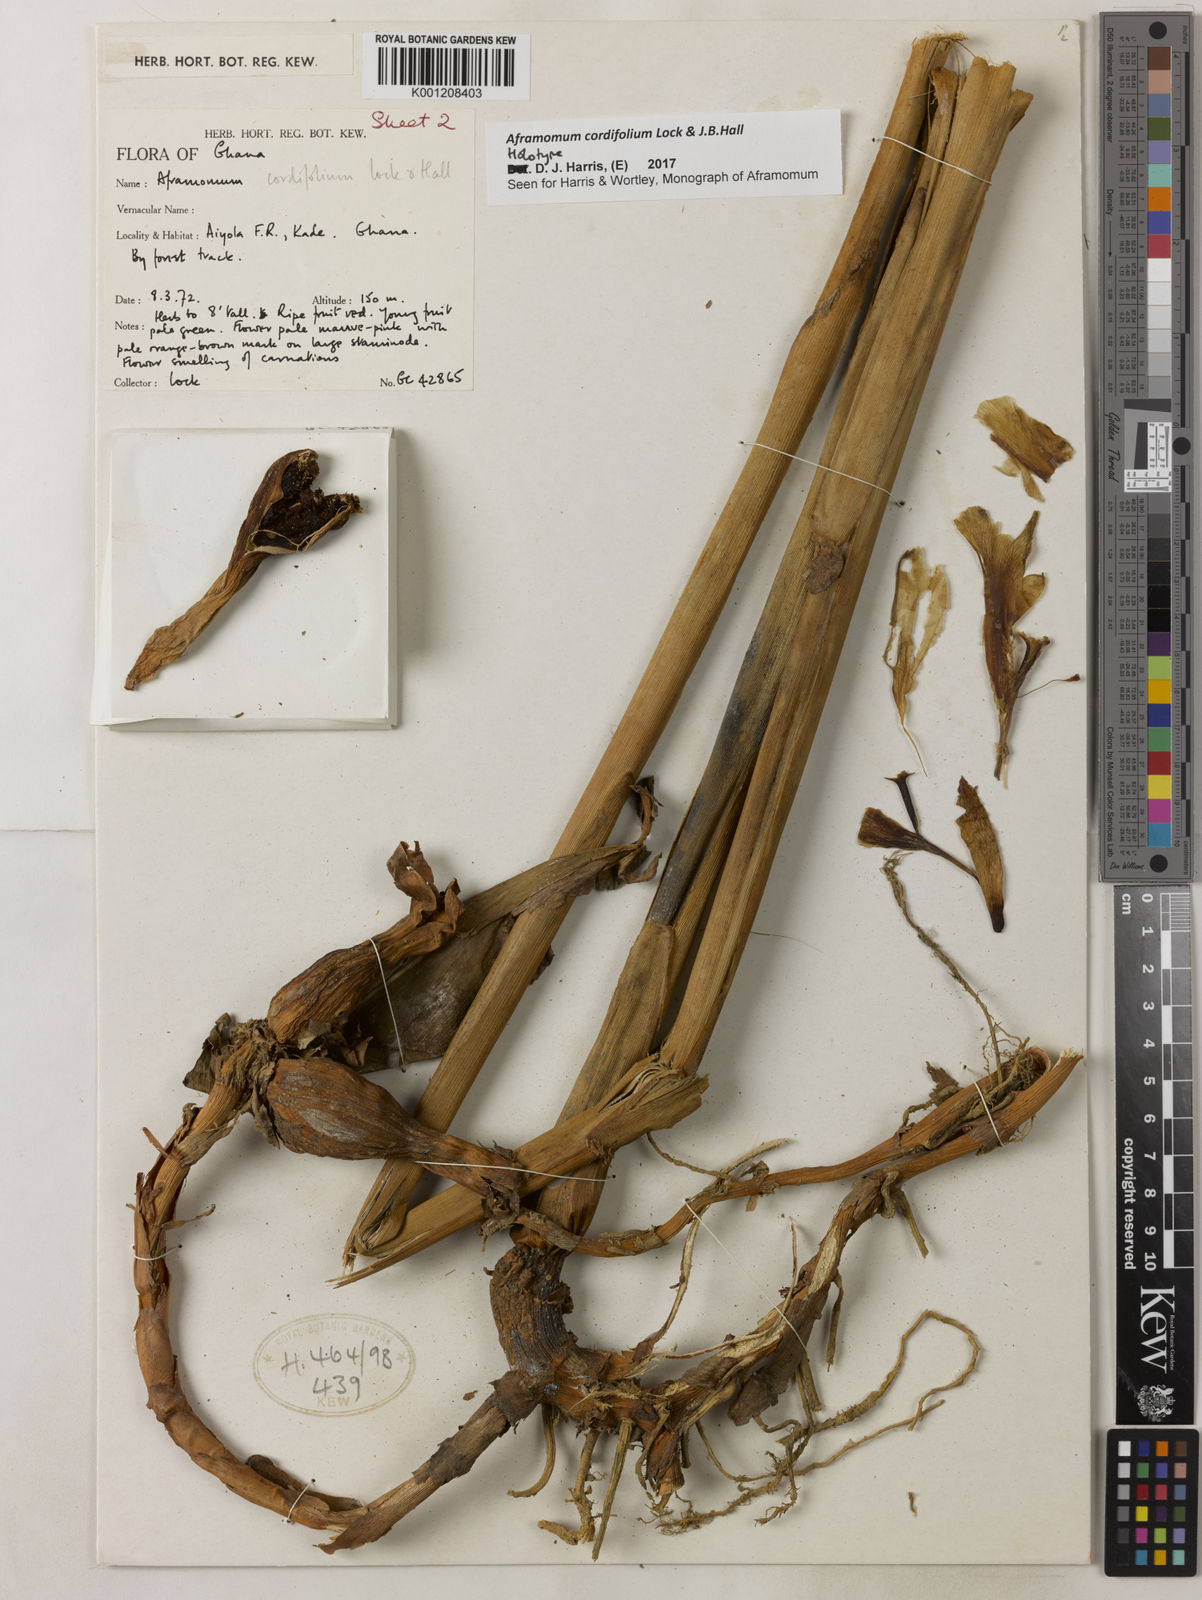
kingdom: Plantae
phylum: Tracheophyta
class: Liliopsida
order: Zingiberales
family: Zingiberaceae
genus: Aframomum
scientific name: Aframomum cordifolium
